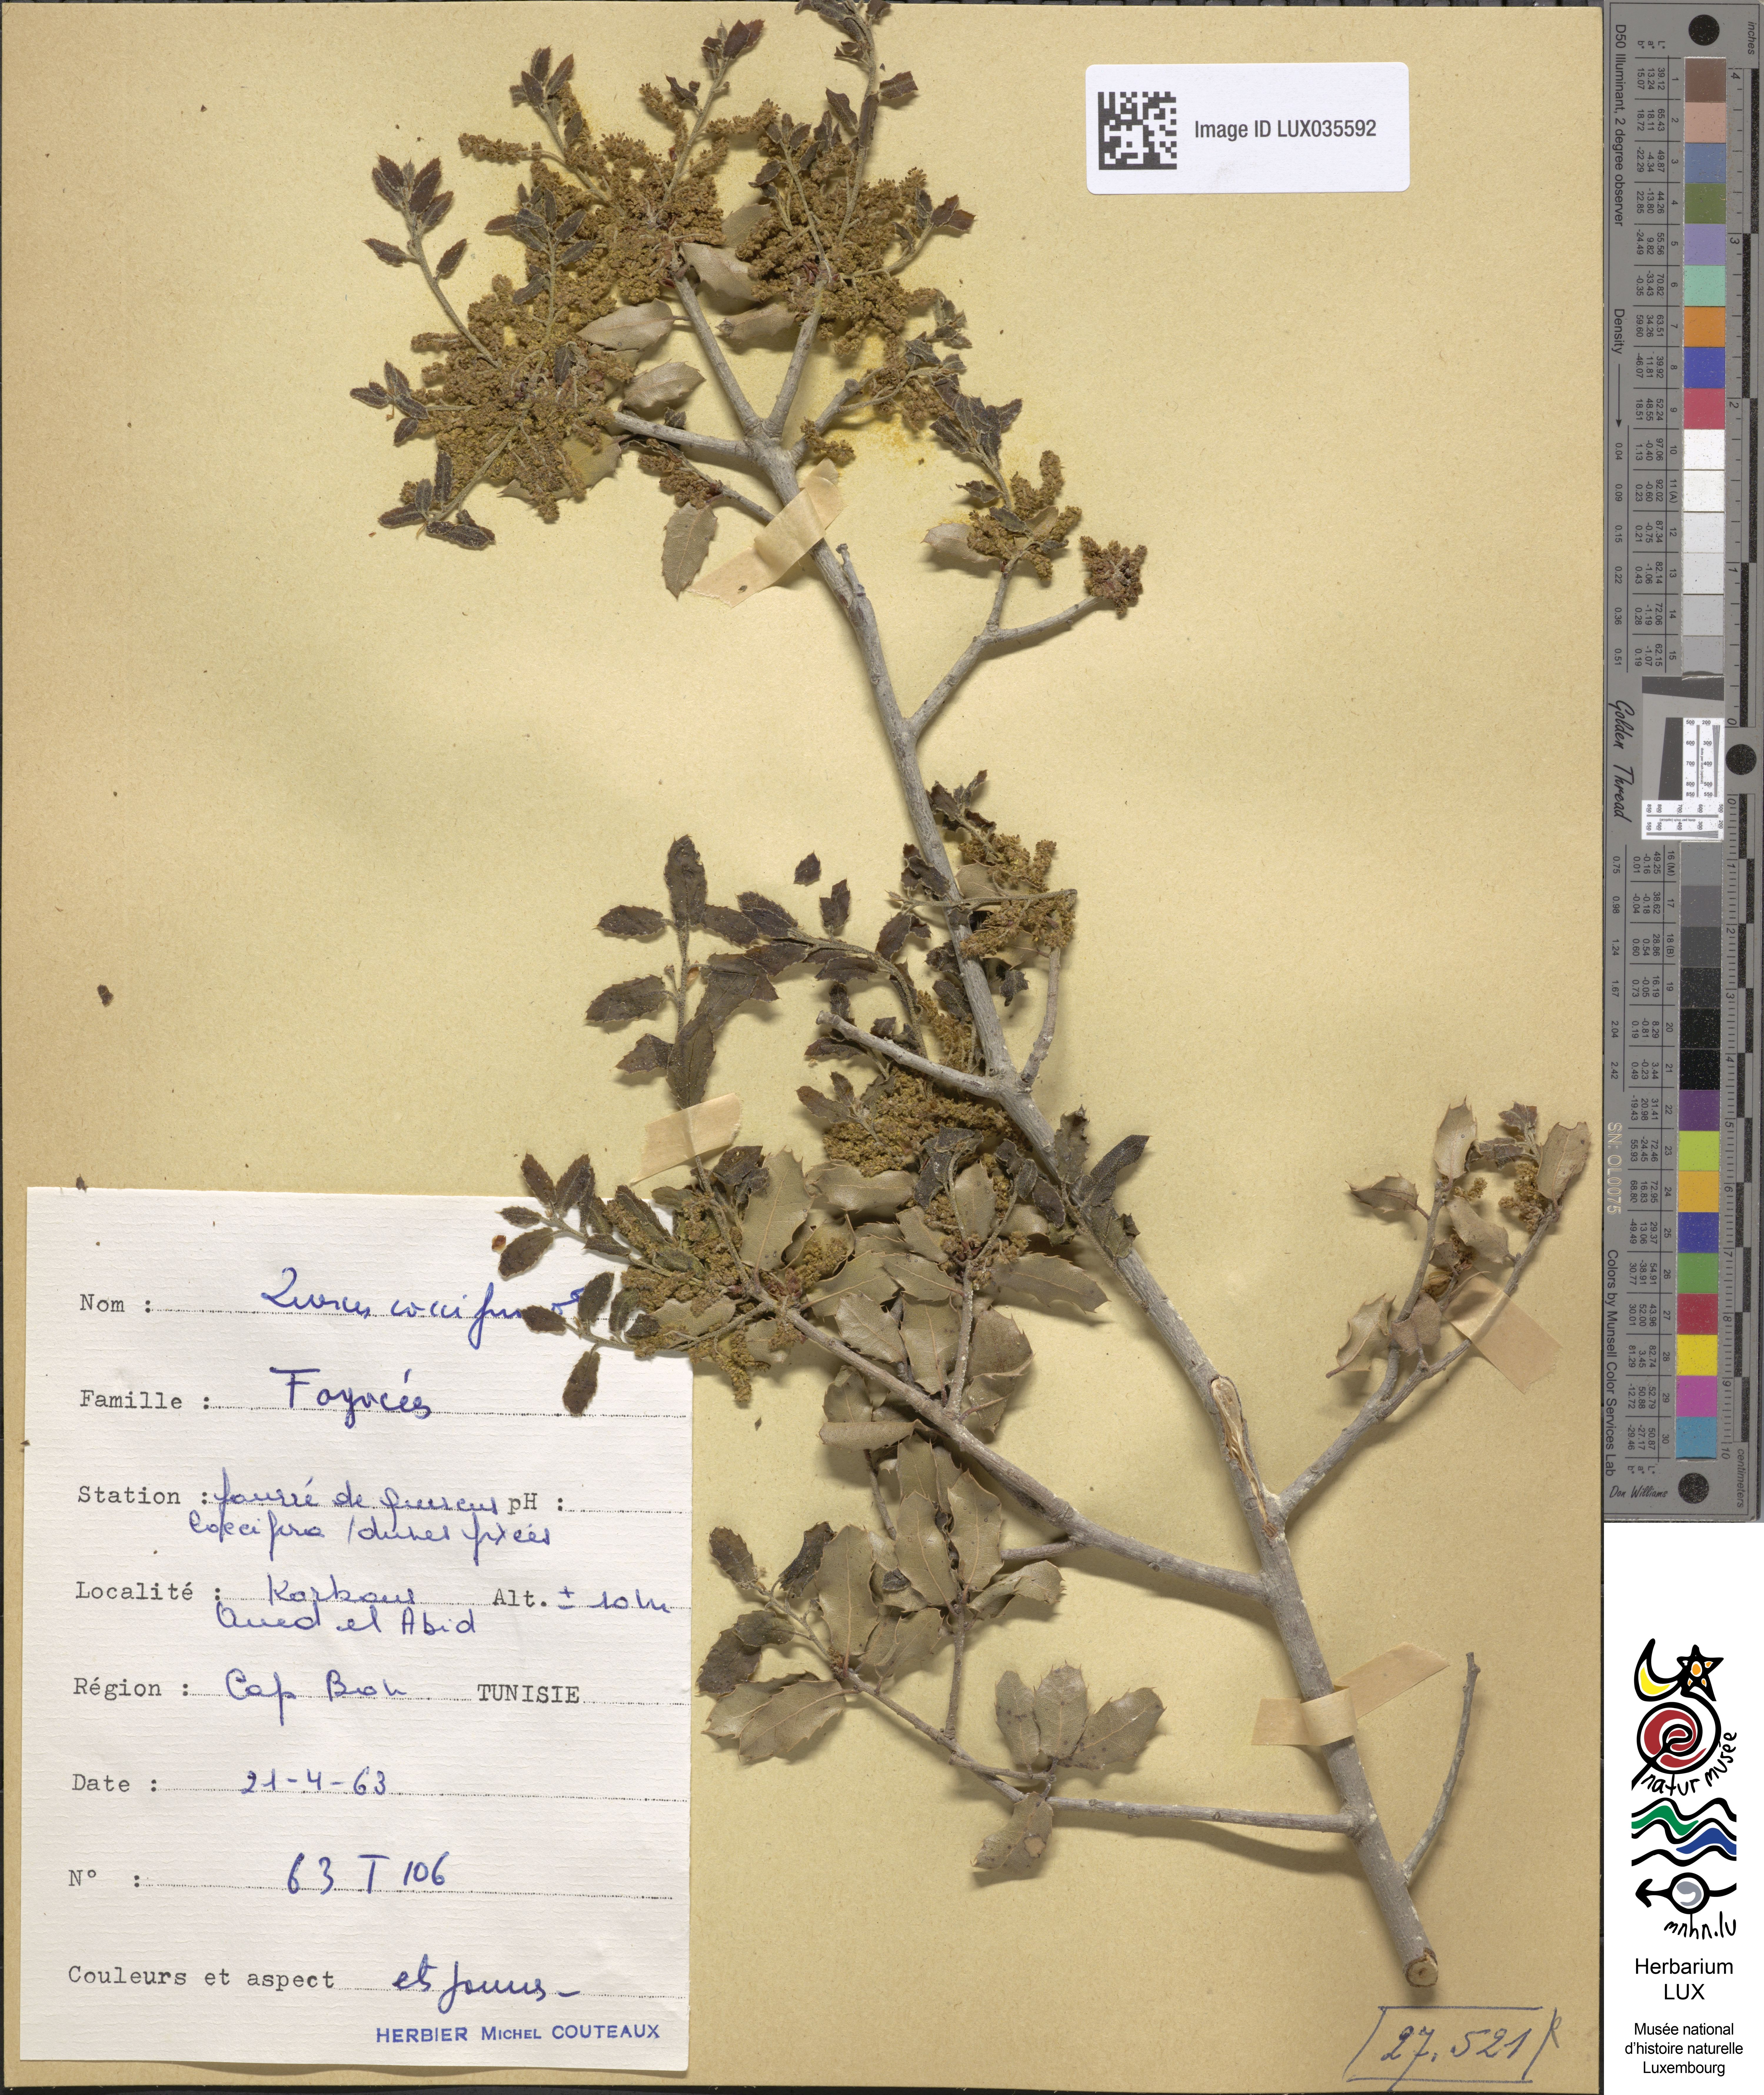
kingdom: Plantae
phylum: Tracheophyta
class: Magnoliopsida
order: Fagales
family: Fagaceae
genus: Quercus
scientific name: Quercus coccifera
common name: Kermes oak
